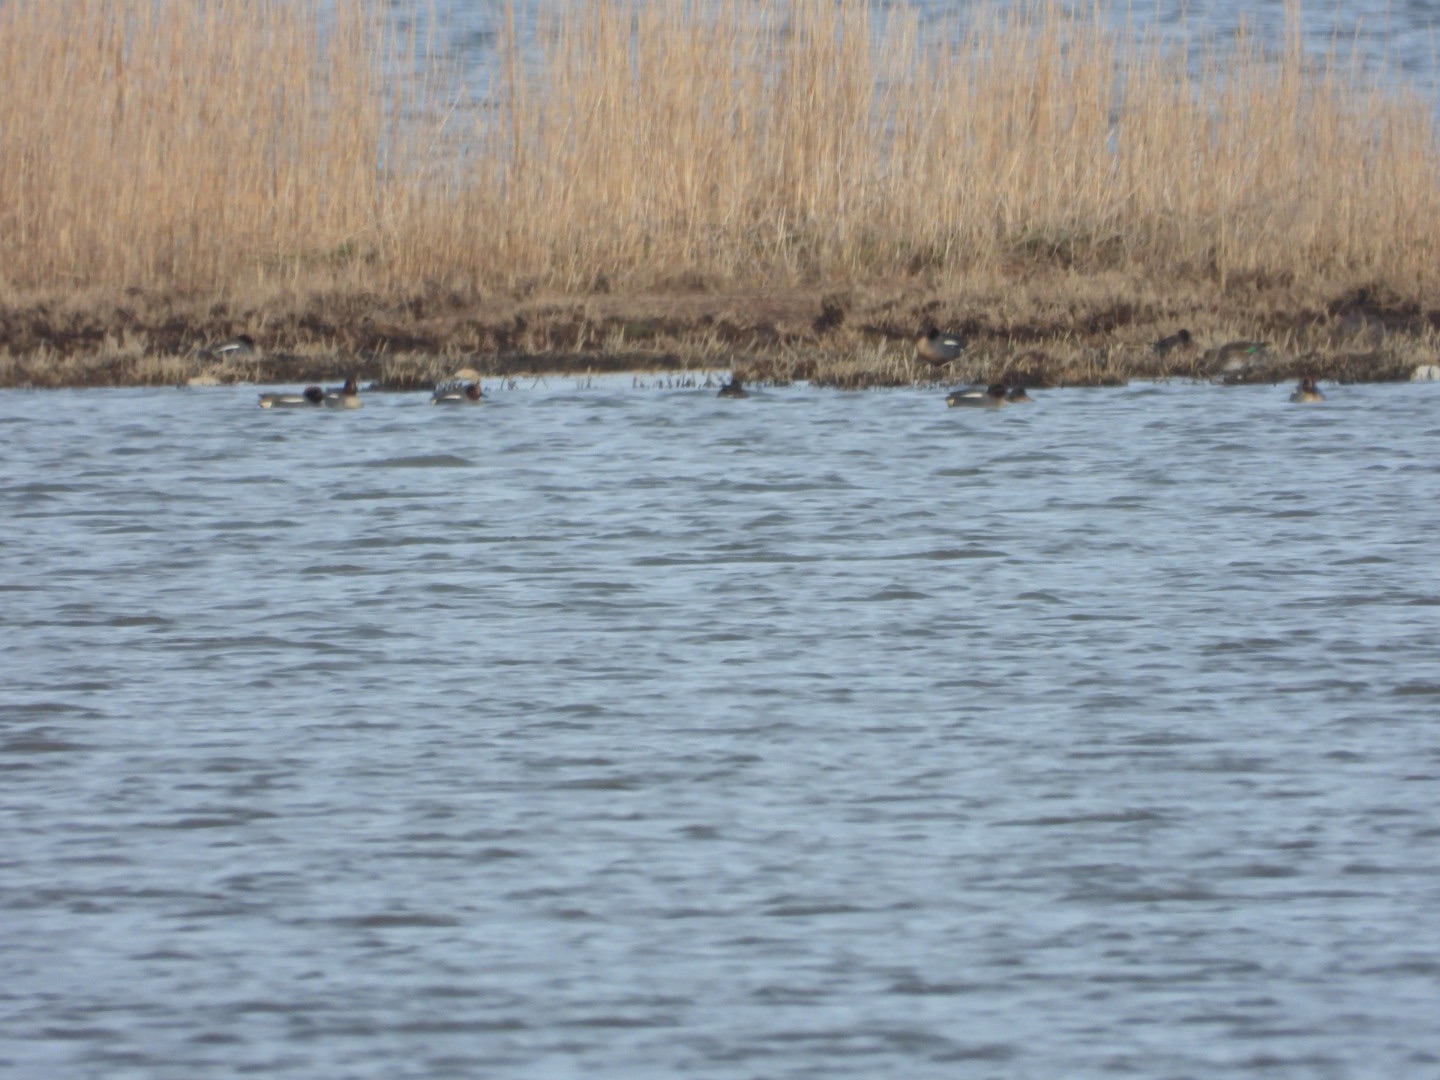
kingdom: Animalia
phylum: Chordata
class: Aves
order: Anseriformes
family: Anatidae
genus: Anas
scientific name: Anas crecca
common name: Krikand
